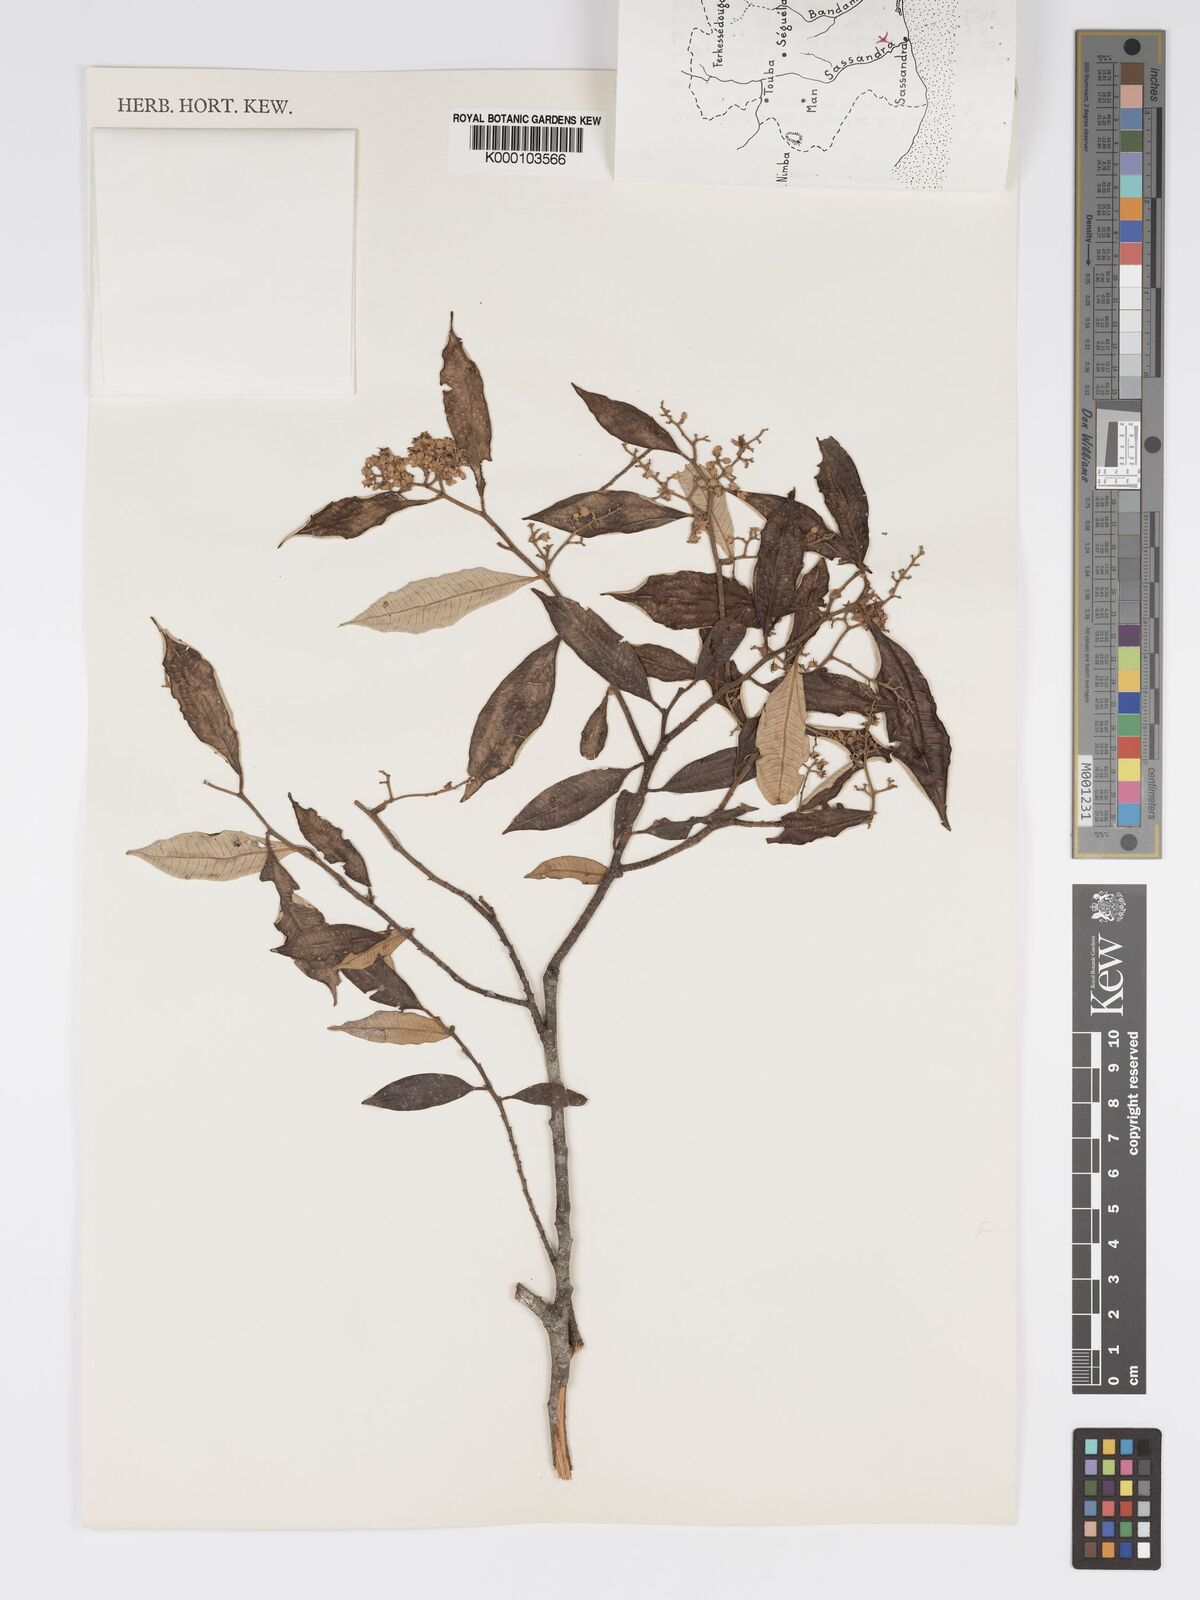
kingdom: Plantae
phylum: Tracheophyta
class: Magnoliopsida
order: Malpighiales
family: Chrysobalanaceae
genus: Parinari
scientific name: Parinari excelsa
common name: Guinea-plum
